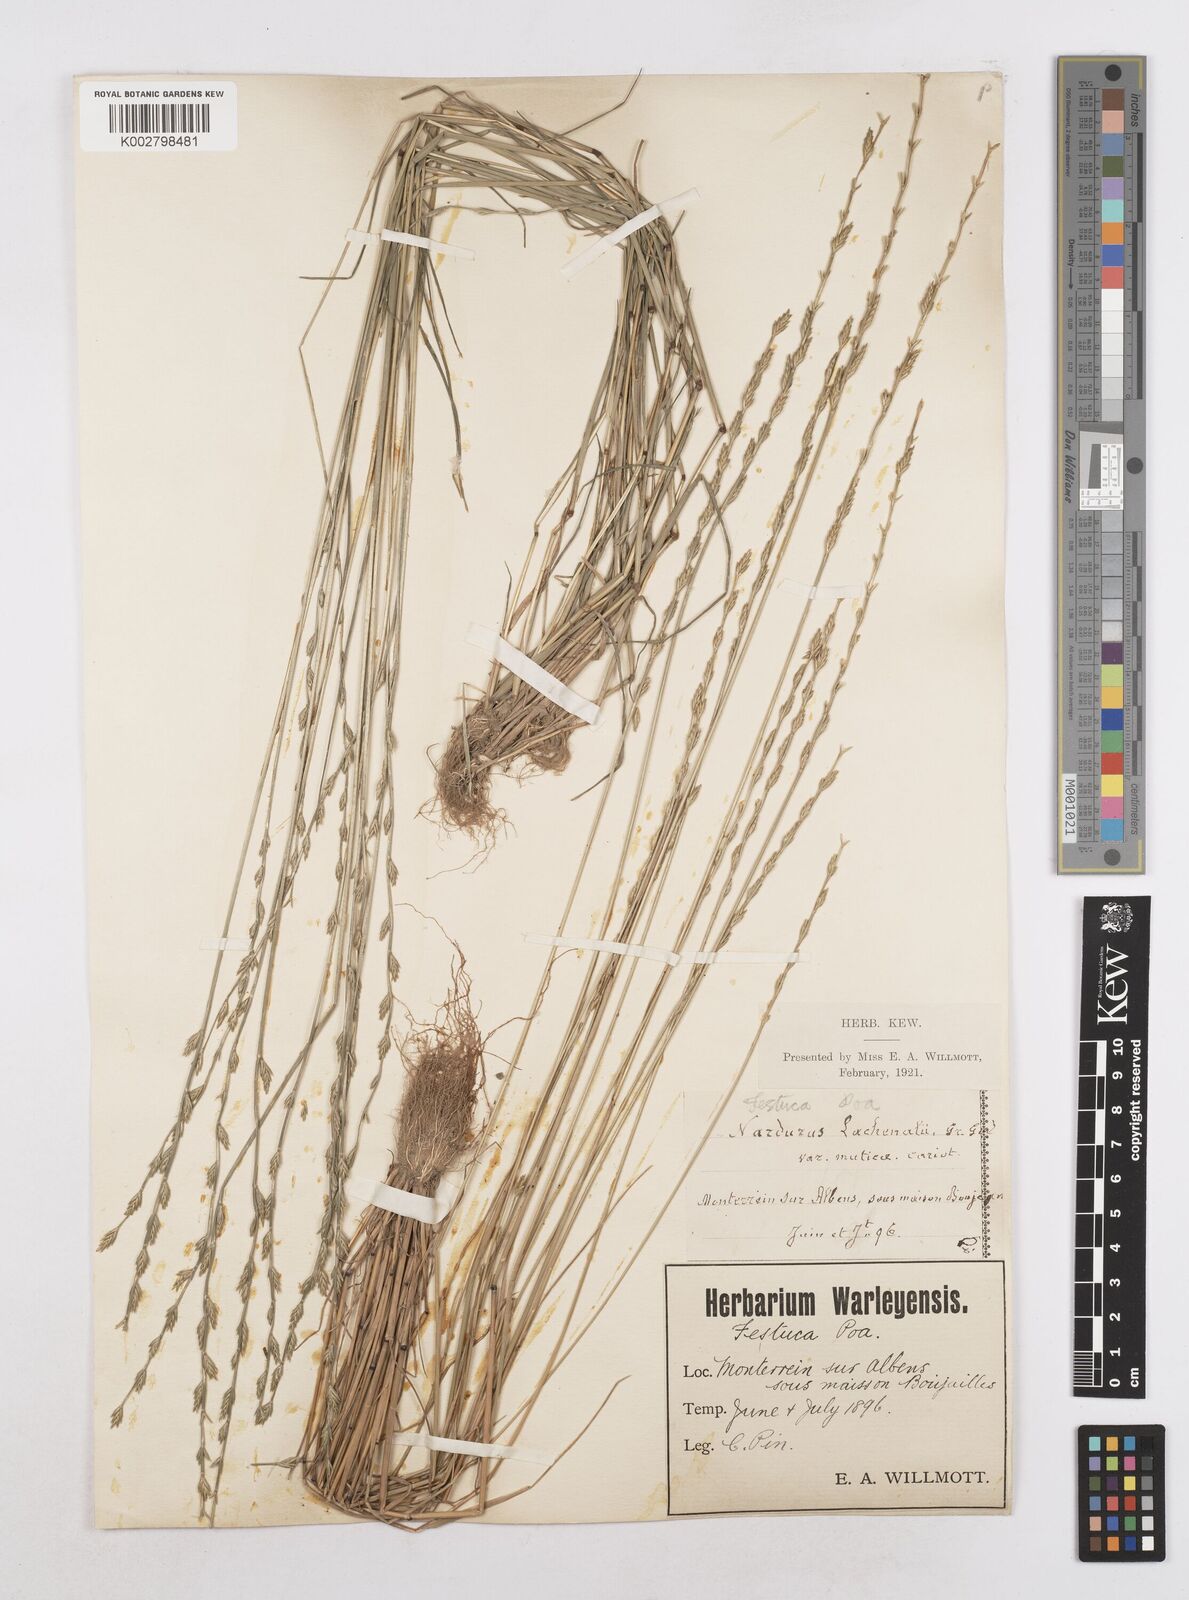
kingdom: Plantae
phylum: Tracheophyta
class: Liliopsida
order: Poales
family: Poaceae
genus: Festuca
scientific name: Festuca lachenalii
